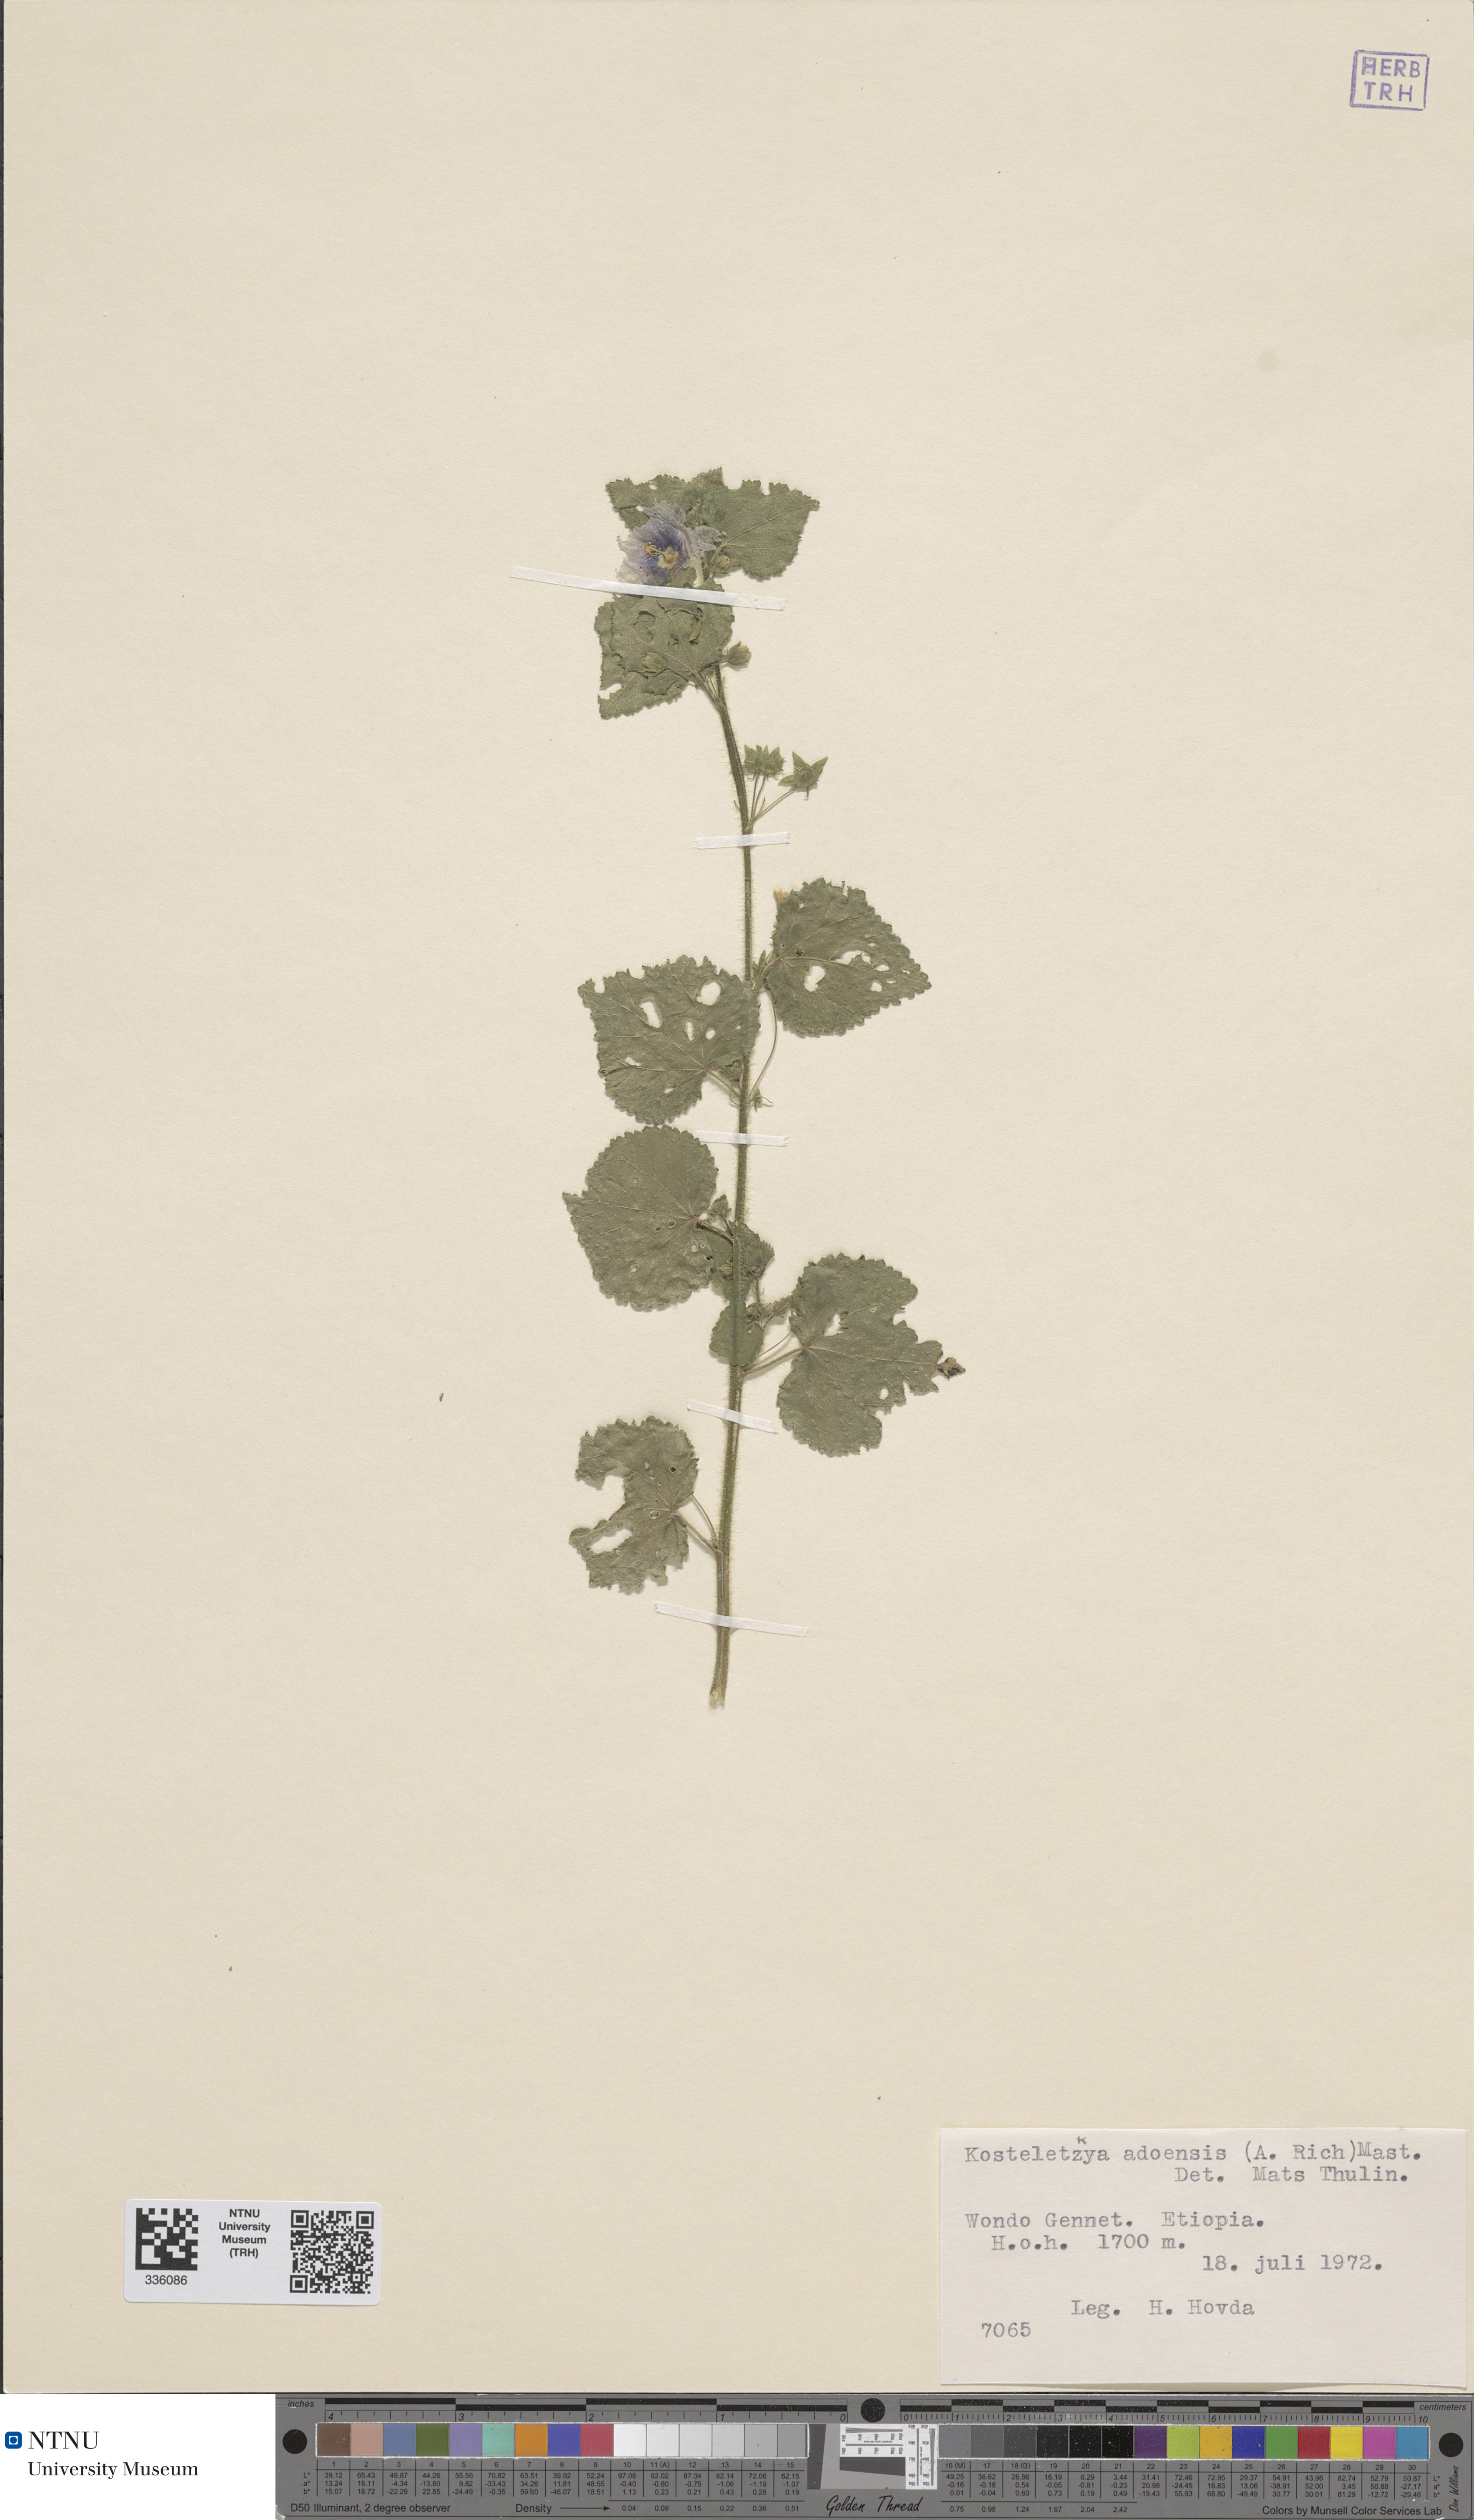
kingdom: Plantae
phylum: Tracheophyta
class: Magnoliopsida
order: Malvales
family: Malvaceae
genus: Kosteletzkya
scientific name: Kosteletzkya adoensis
